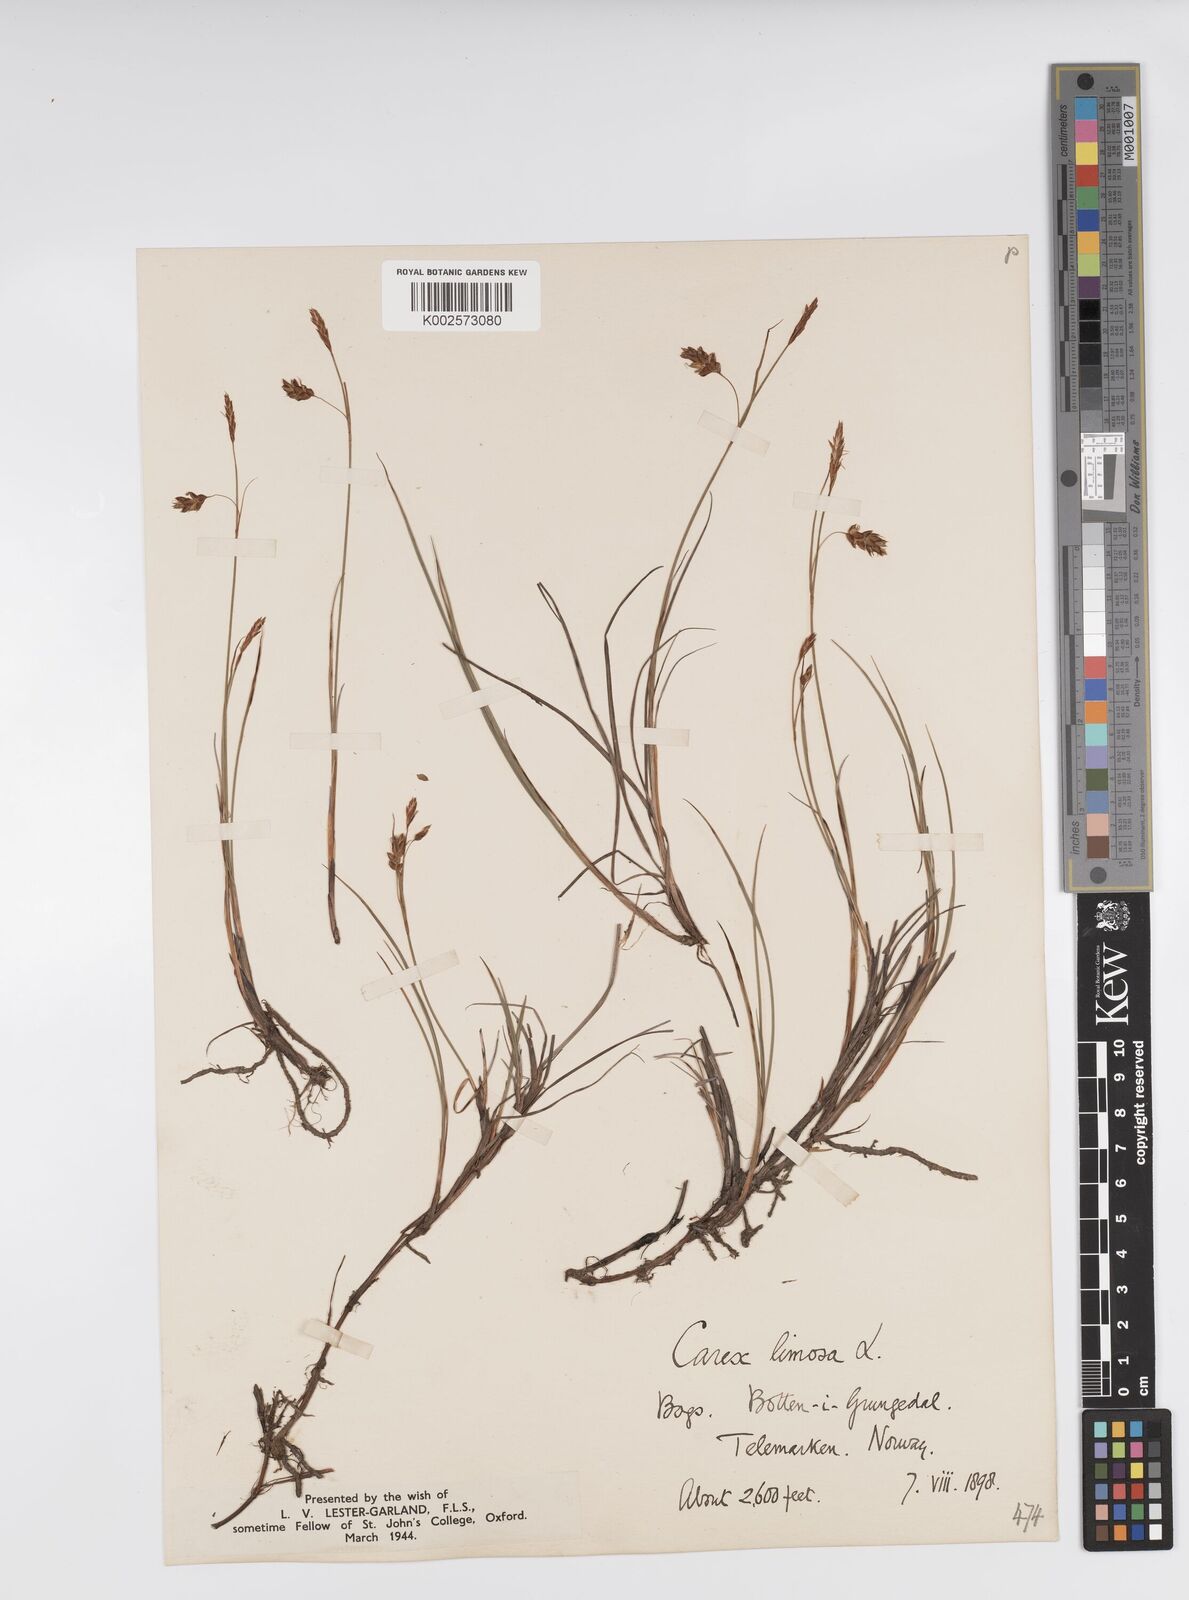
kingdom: Plantae
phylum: Tracheophyta
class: Liliopsida
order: Poales
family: Cyperaceae
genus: Carex
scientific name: Carex limosa
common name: Bog sedge
